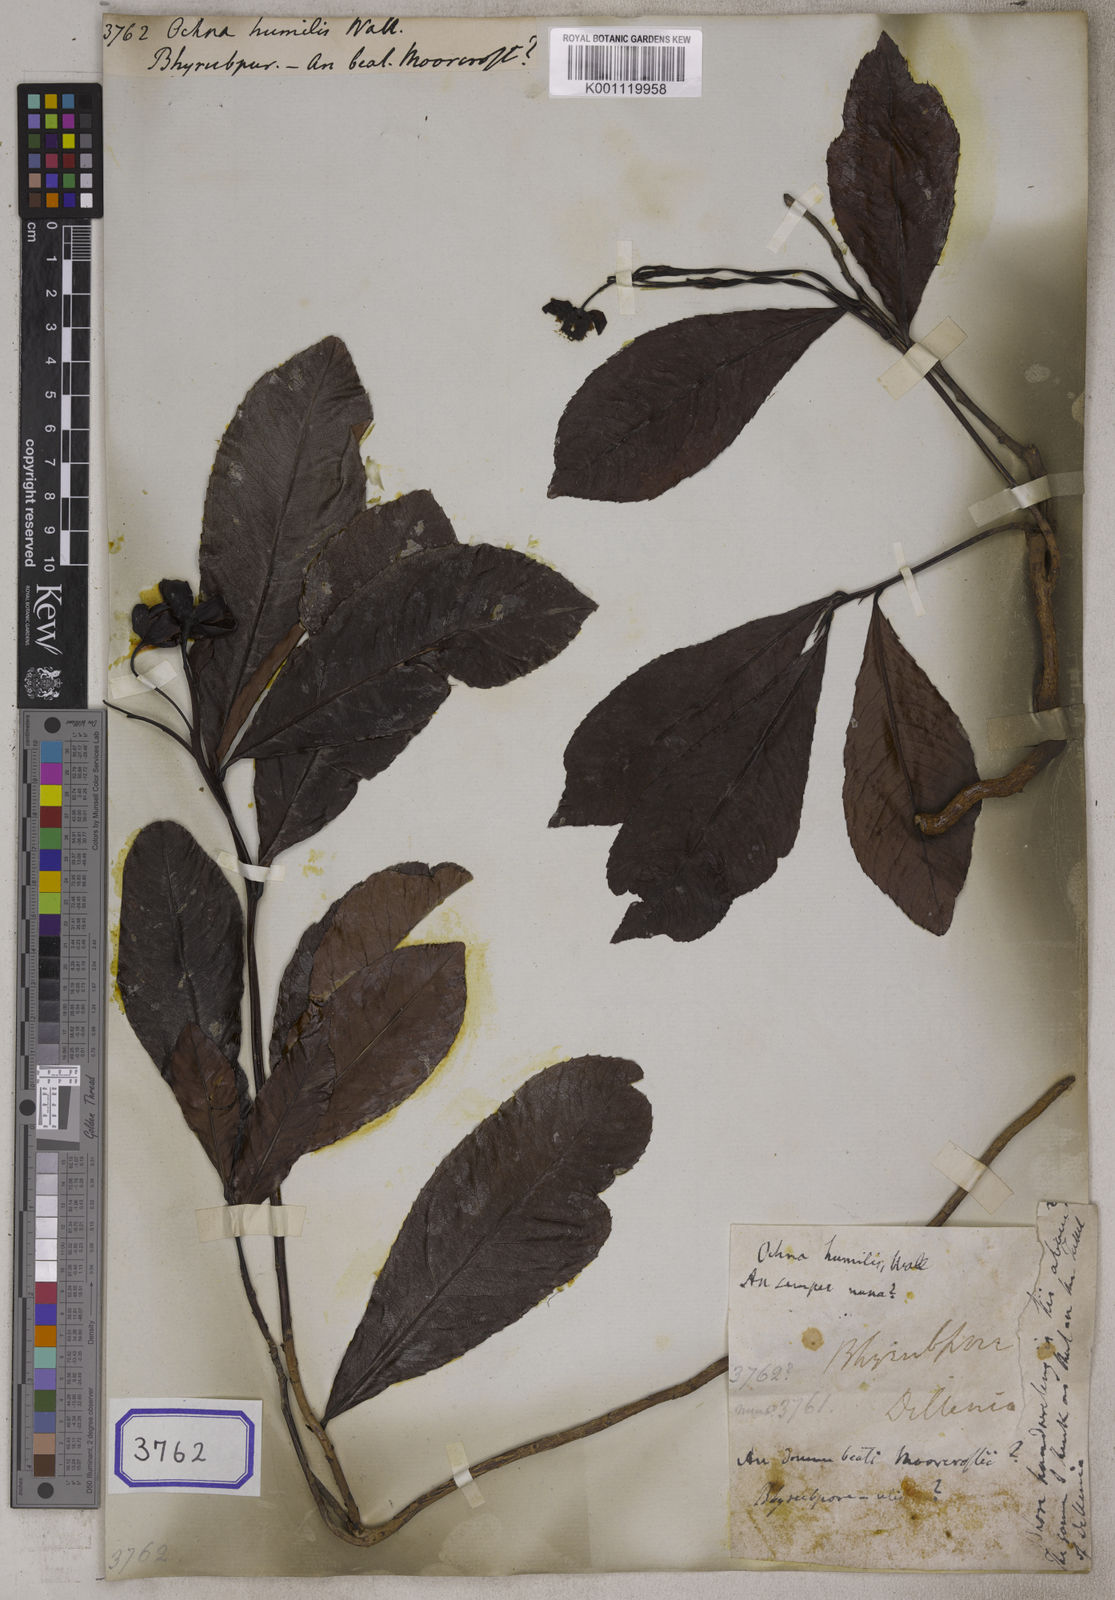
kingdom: Plantae
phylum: Tracheophyta
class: Magnoliopsida
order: Malpighiales
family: Ochnaceae
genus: Ochna
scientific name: Ochna pumila
